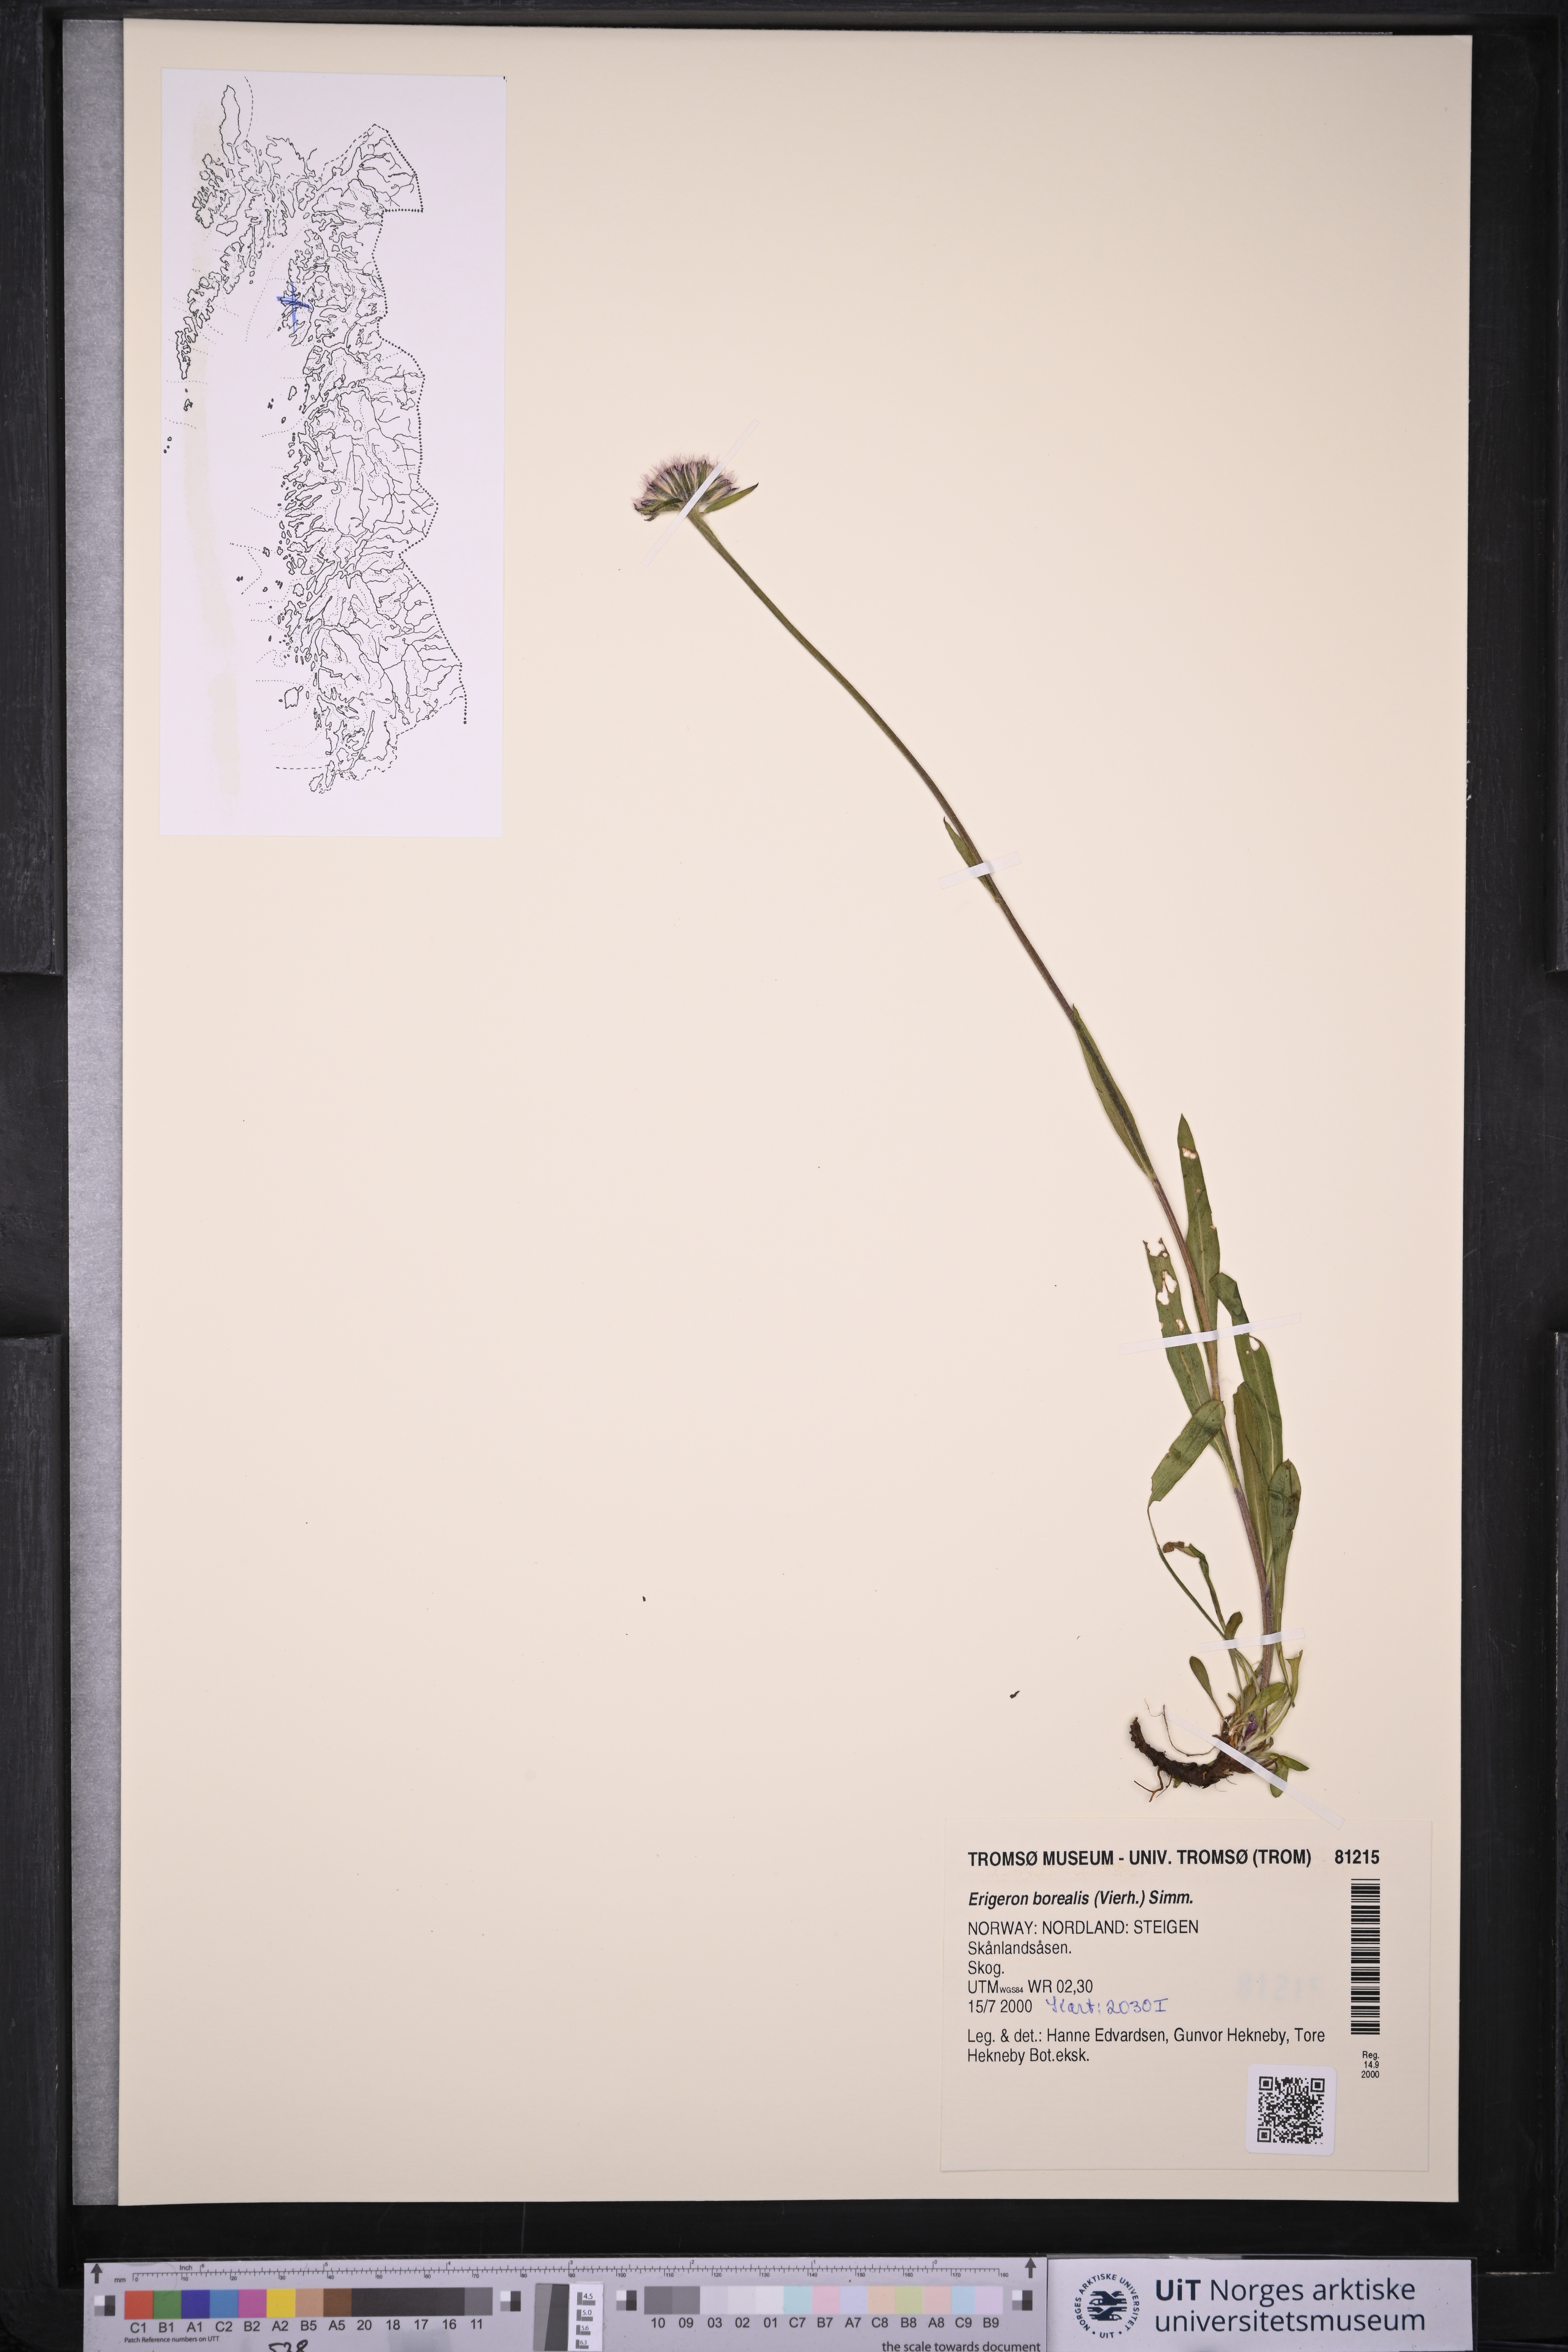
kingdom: Plantae
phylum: Tracheophyta
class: Magnoliopsida
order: Asterales
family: Asteraceae
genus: Erigeron
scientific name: Erigeron borealis
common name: Alpine fleabane
